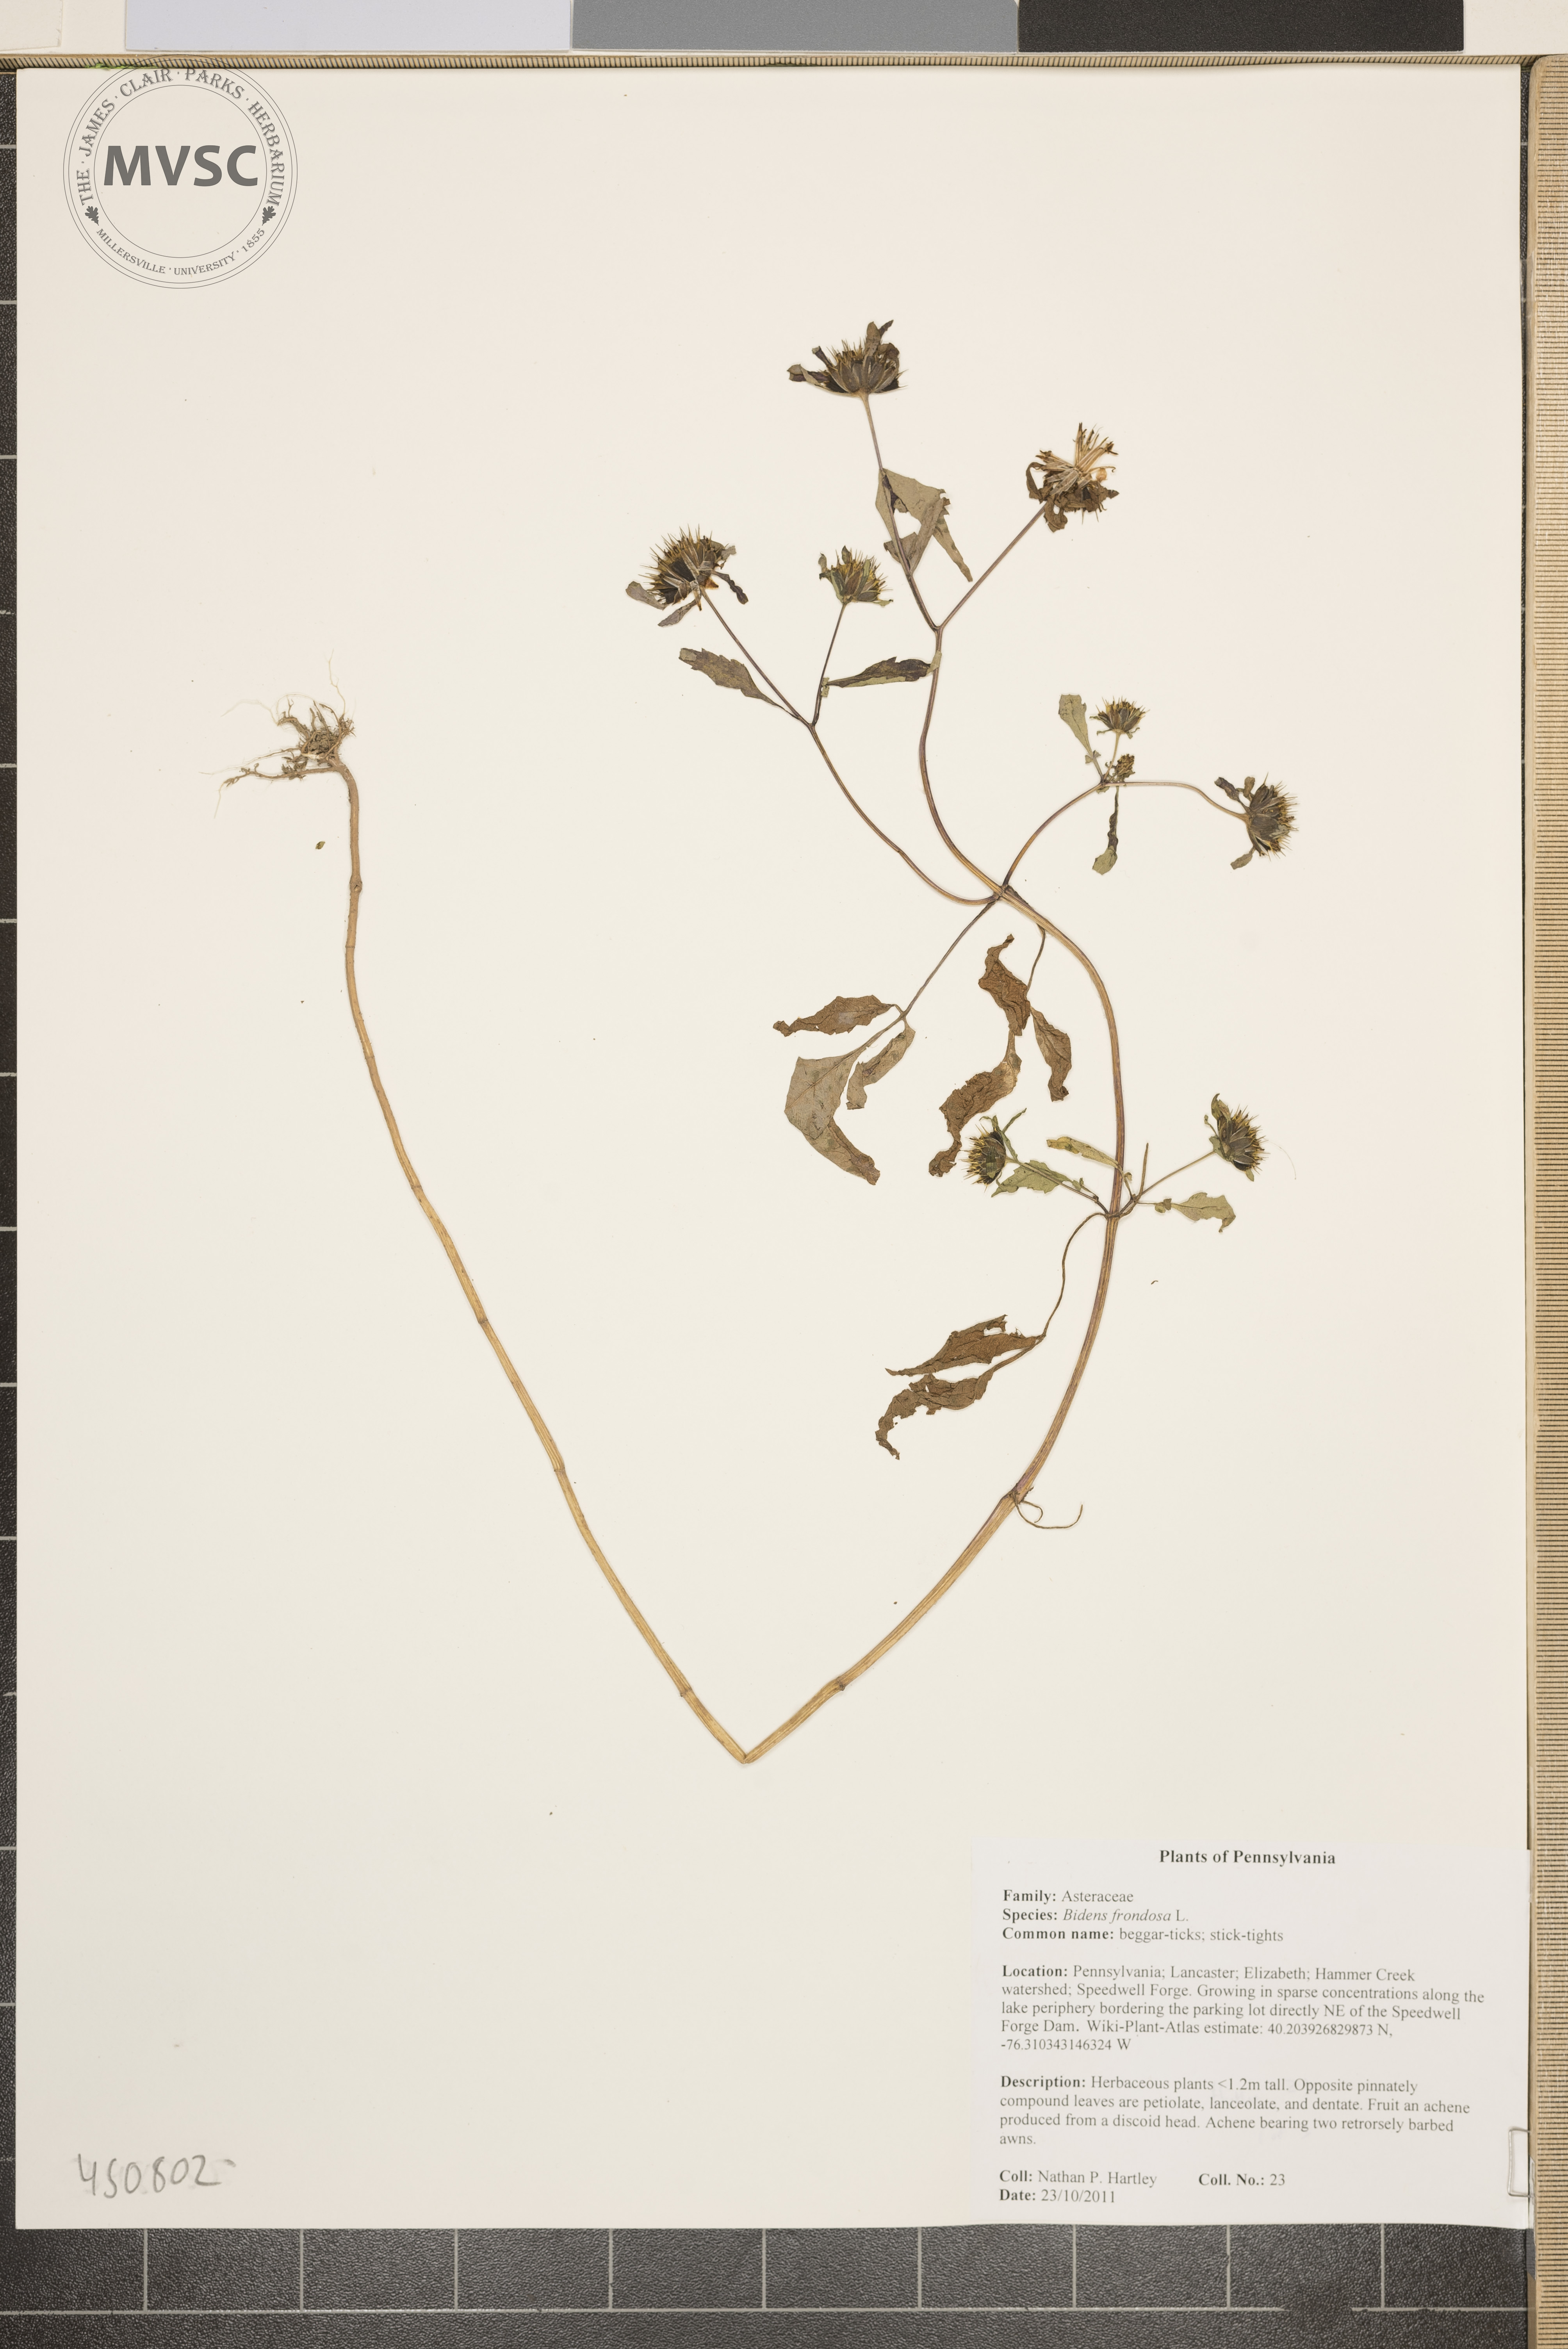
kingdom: Plantae
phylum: Tracheophyta
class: Magnoliopsida
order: Asterales
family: Asteraceae
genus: Bidens
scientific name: Bidens frondosa
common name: Beggar-ticks
